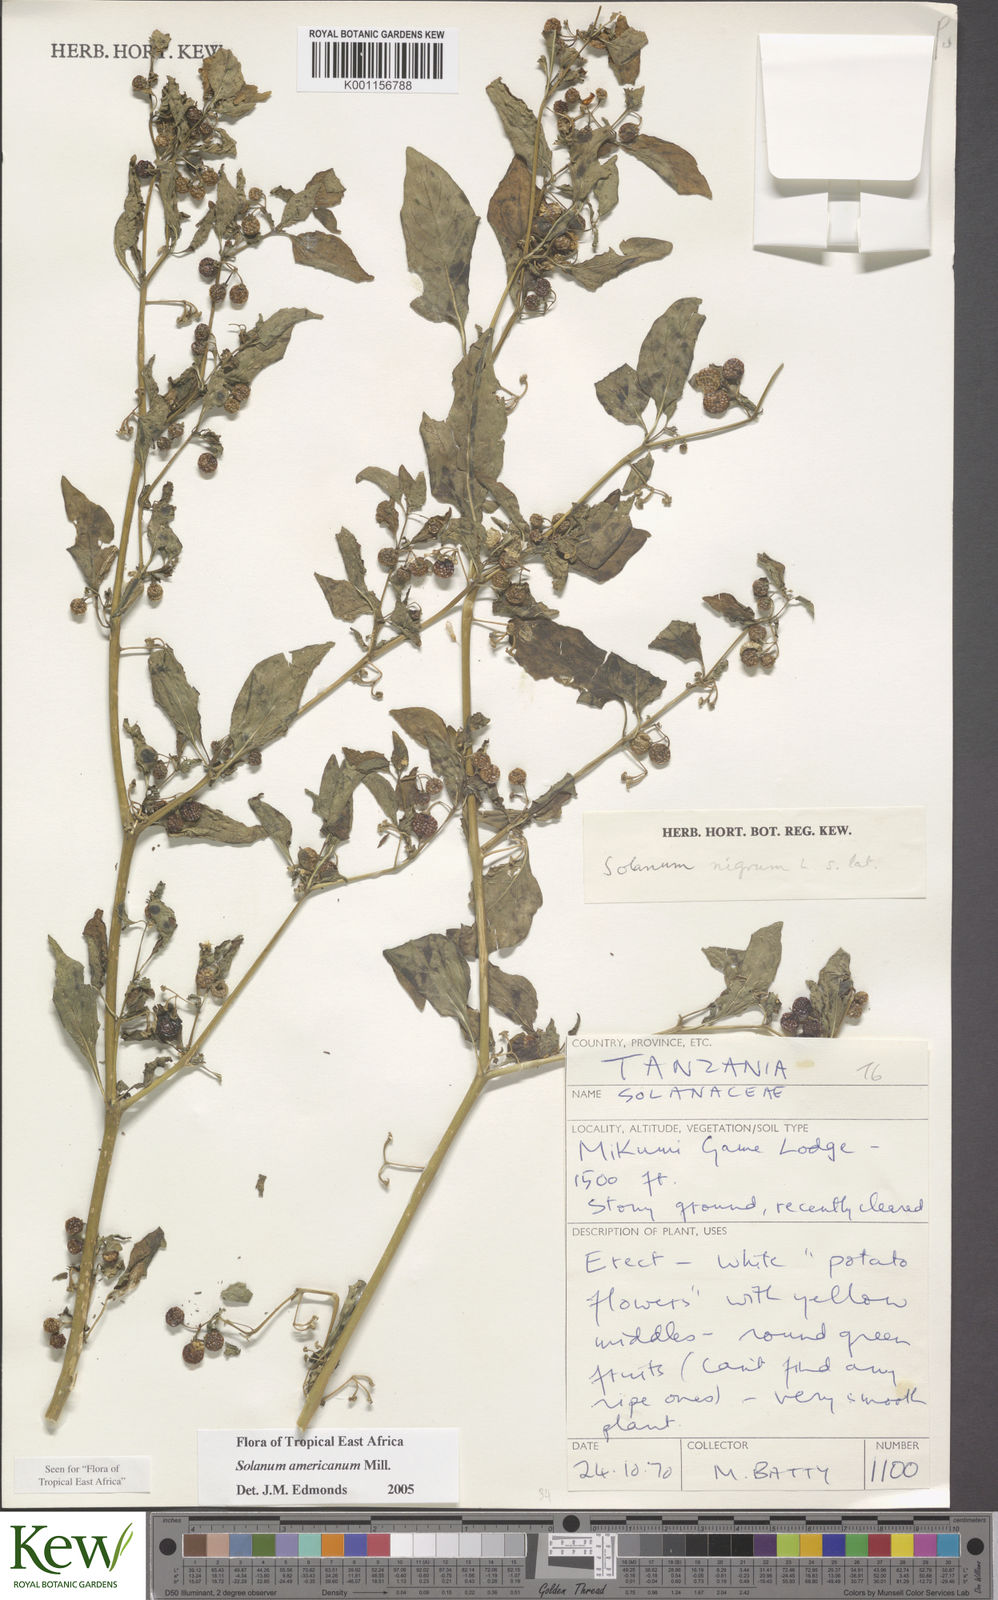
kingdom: Plantae
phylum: Tracheophyta
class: Magnoliopsida
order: Solanales
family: Solanaceae
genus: Solanum
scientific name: Solanum americanum
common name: American black nightshade
